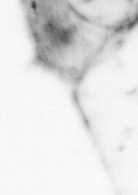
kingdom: Animalia
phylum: Chaetognatha
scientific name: Chaetognatha
